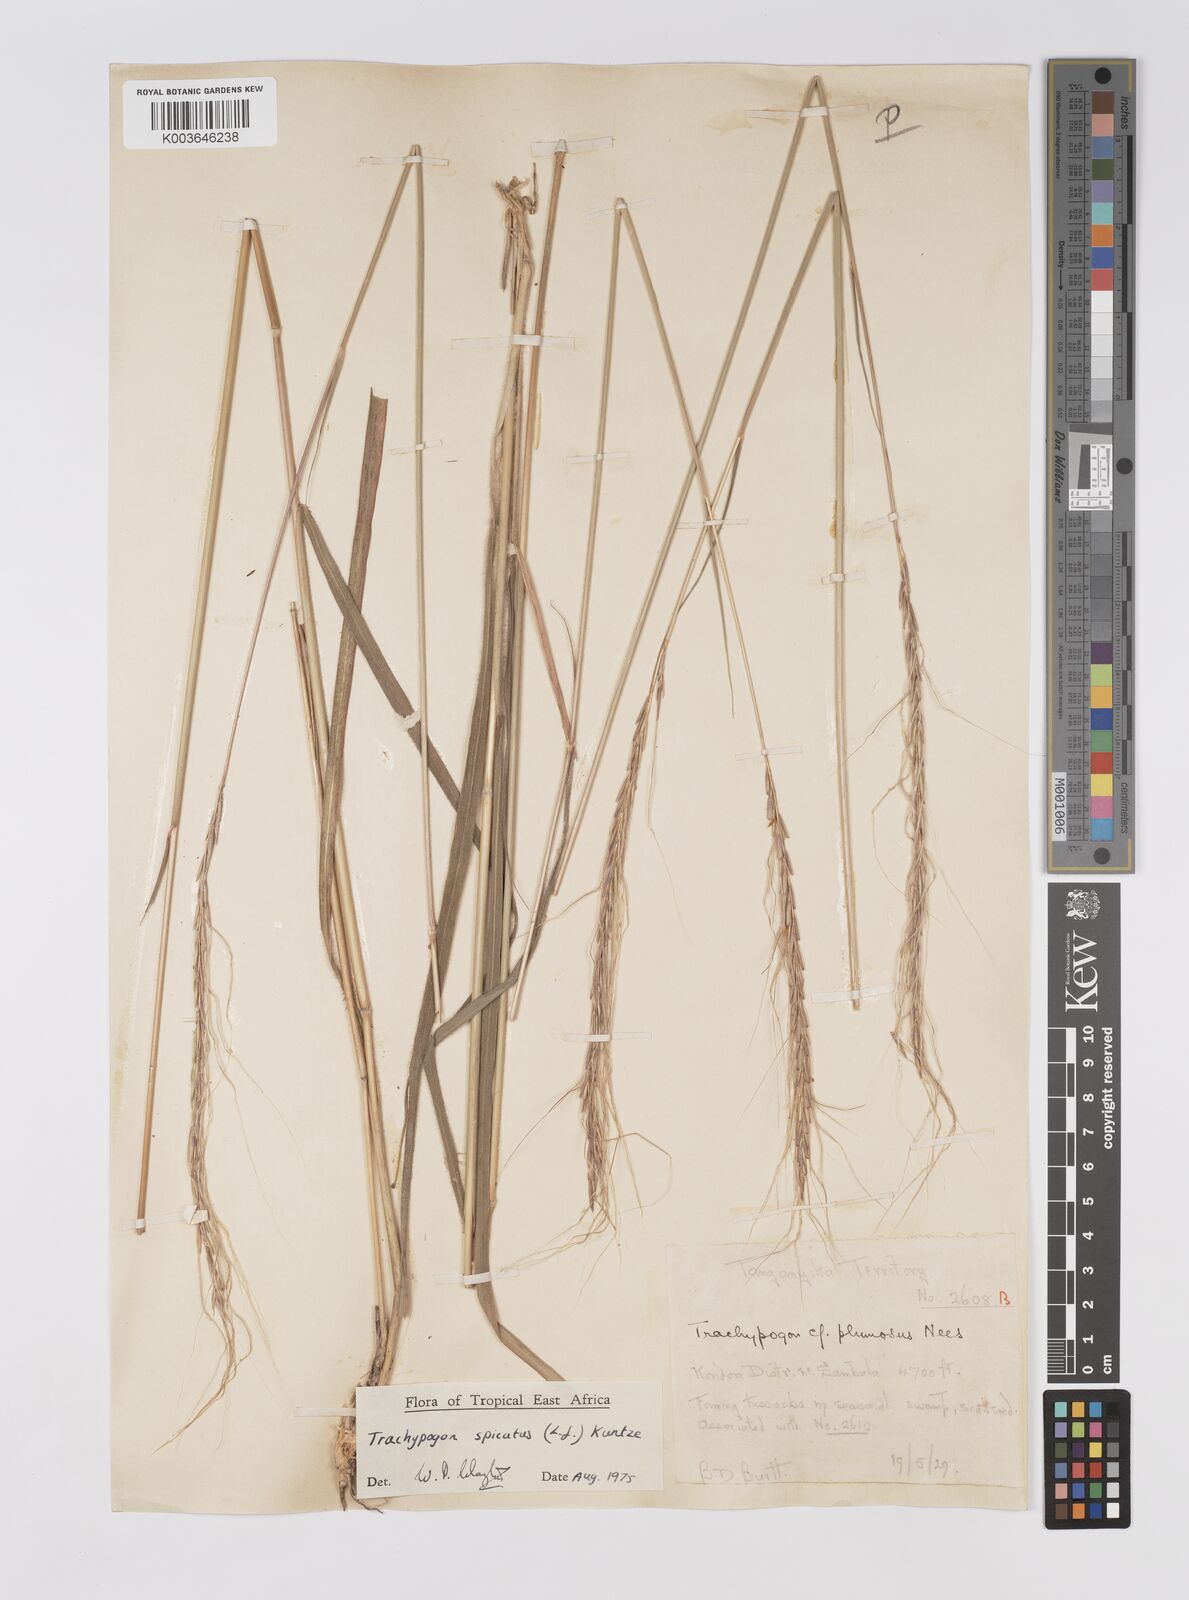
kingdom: Plantae
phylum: Tracheophyta
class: Liliopsida
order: Poales
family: Poaceae
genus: Trachypogon
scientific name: Trachypogon spicatus
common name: Crinkle-awn
